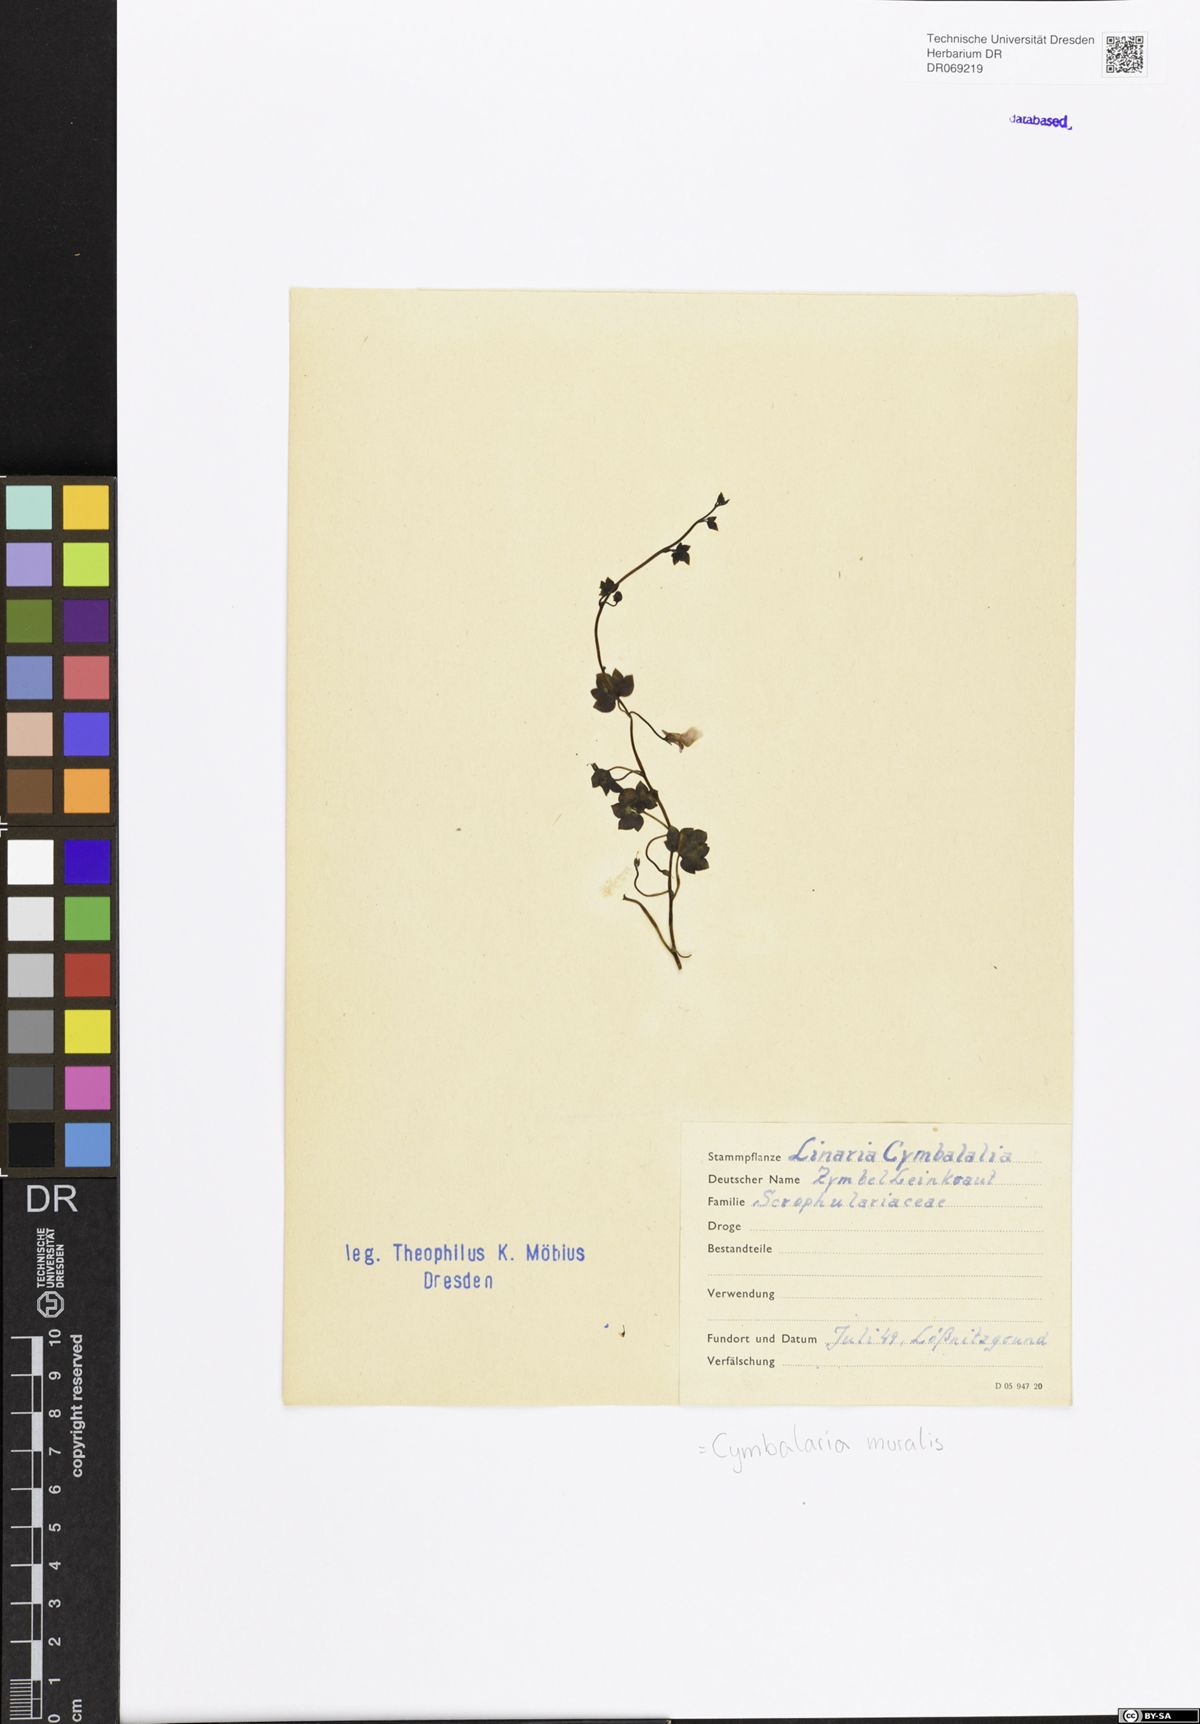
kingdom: Plantae
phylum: Tracheophyta
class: Magnoliopsida
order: Lamiales
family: Plantaginaceae
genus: Cymbalaria
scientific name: Cymbalaria muralis
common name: Ivy-leaved toadflax
